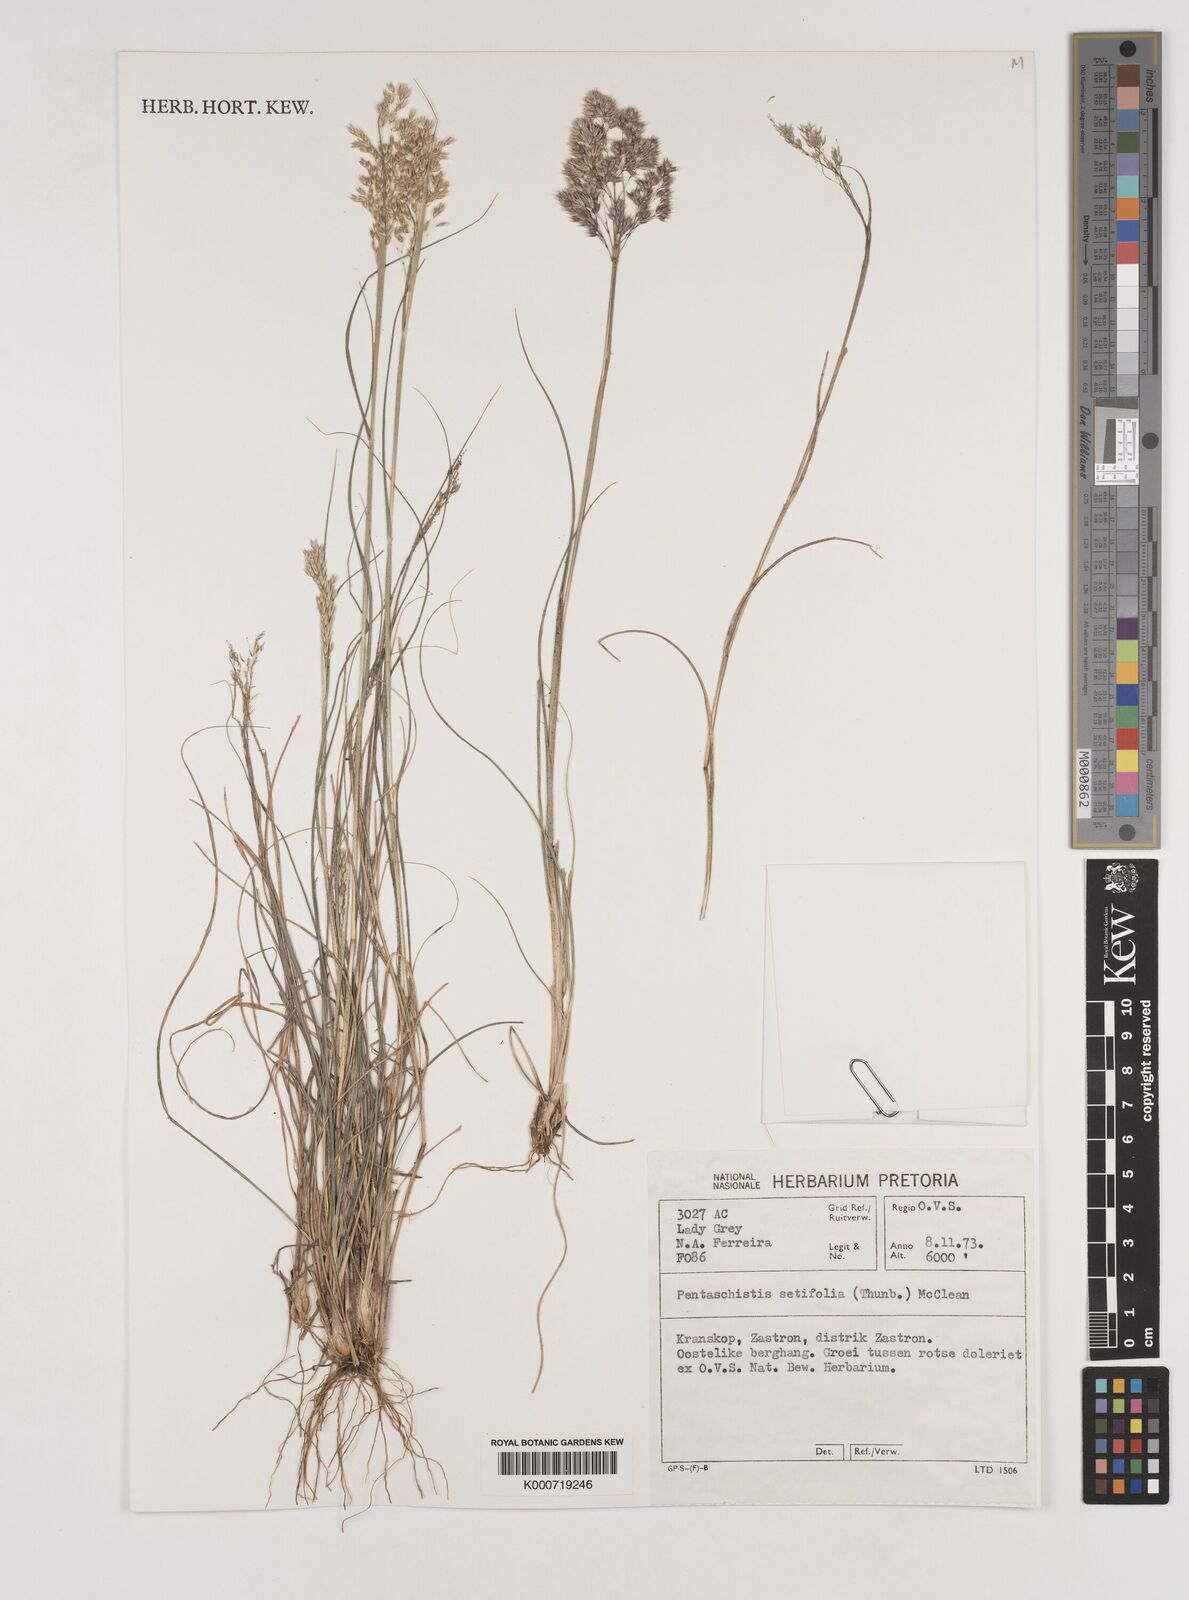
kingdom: Plantae
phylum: Tracheophyta
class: Liliopsida
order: Poales
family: Poaceae
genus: Pentameris
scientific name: Pentameris setifolia
